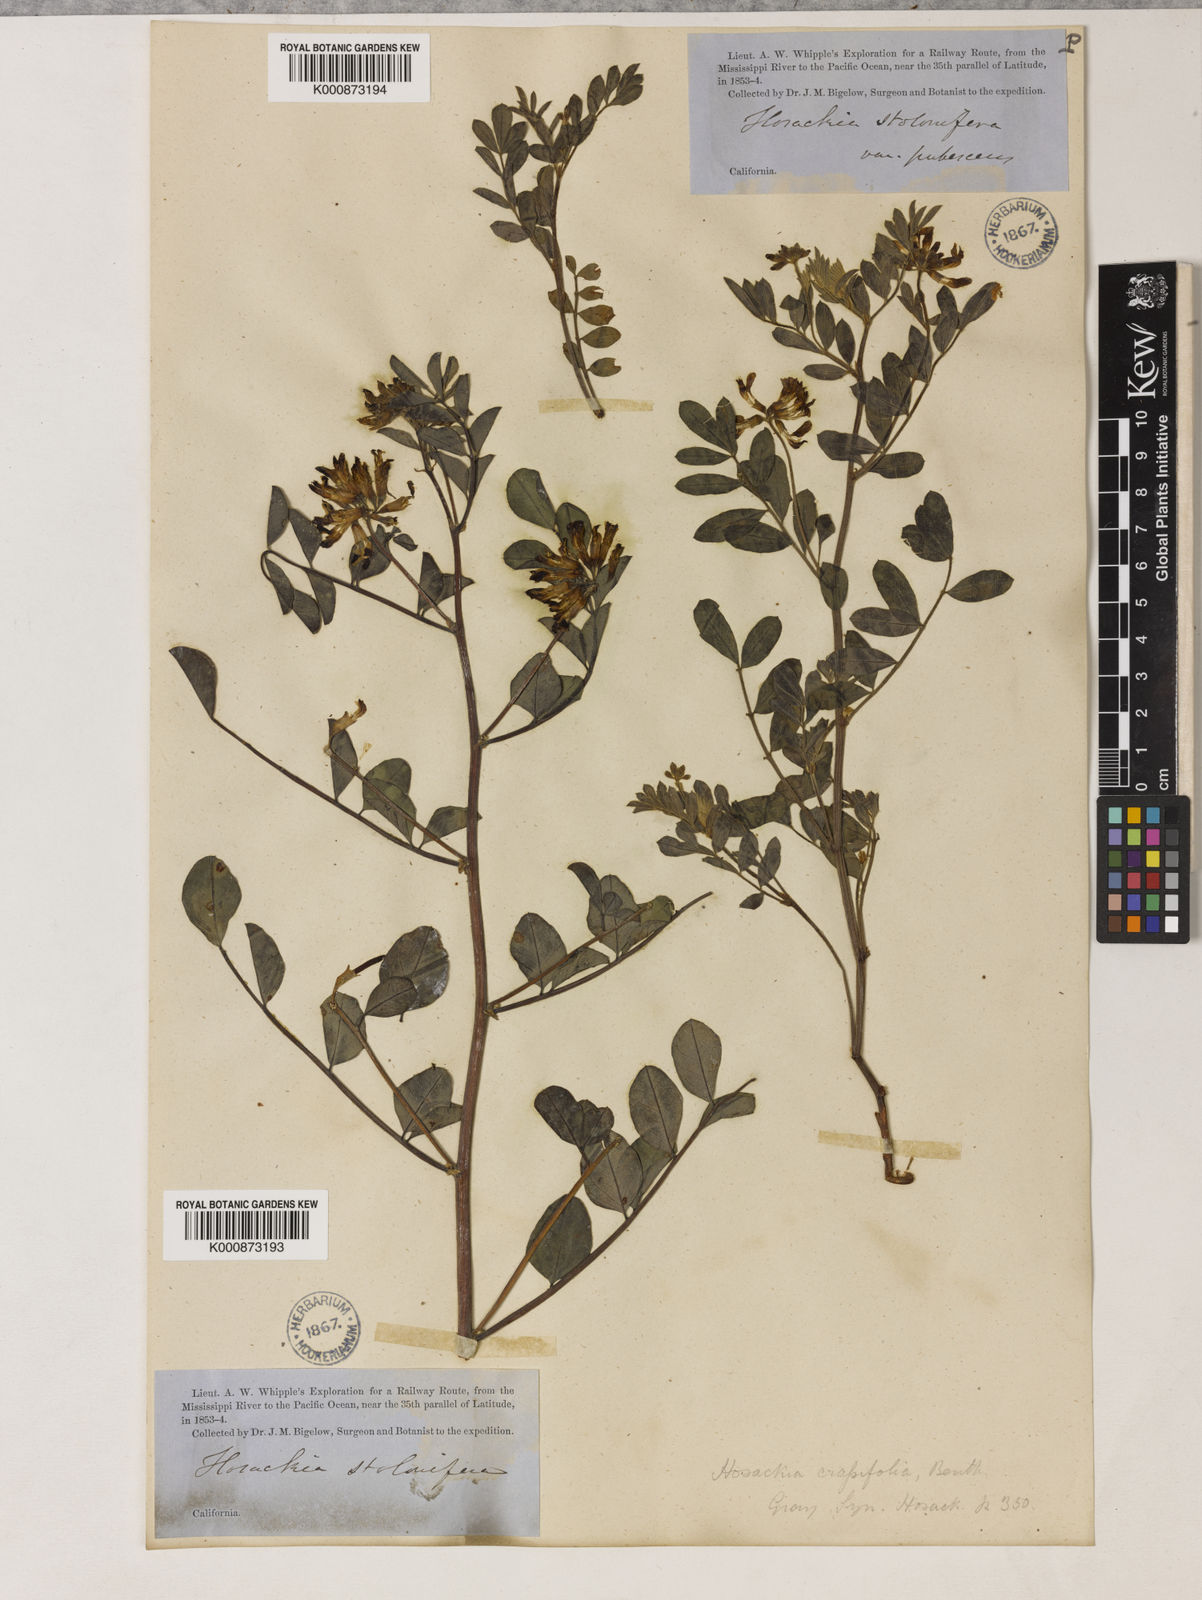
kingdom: Plantae
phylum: Tracheophyta
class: Magnoliopsida
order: Fabales
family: Fabaceae
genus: Hosackia
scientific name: Hosackia crassifolia
